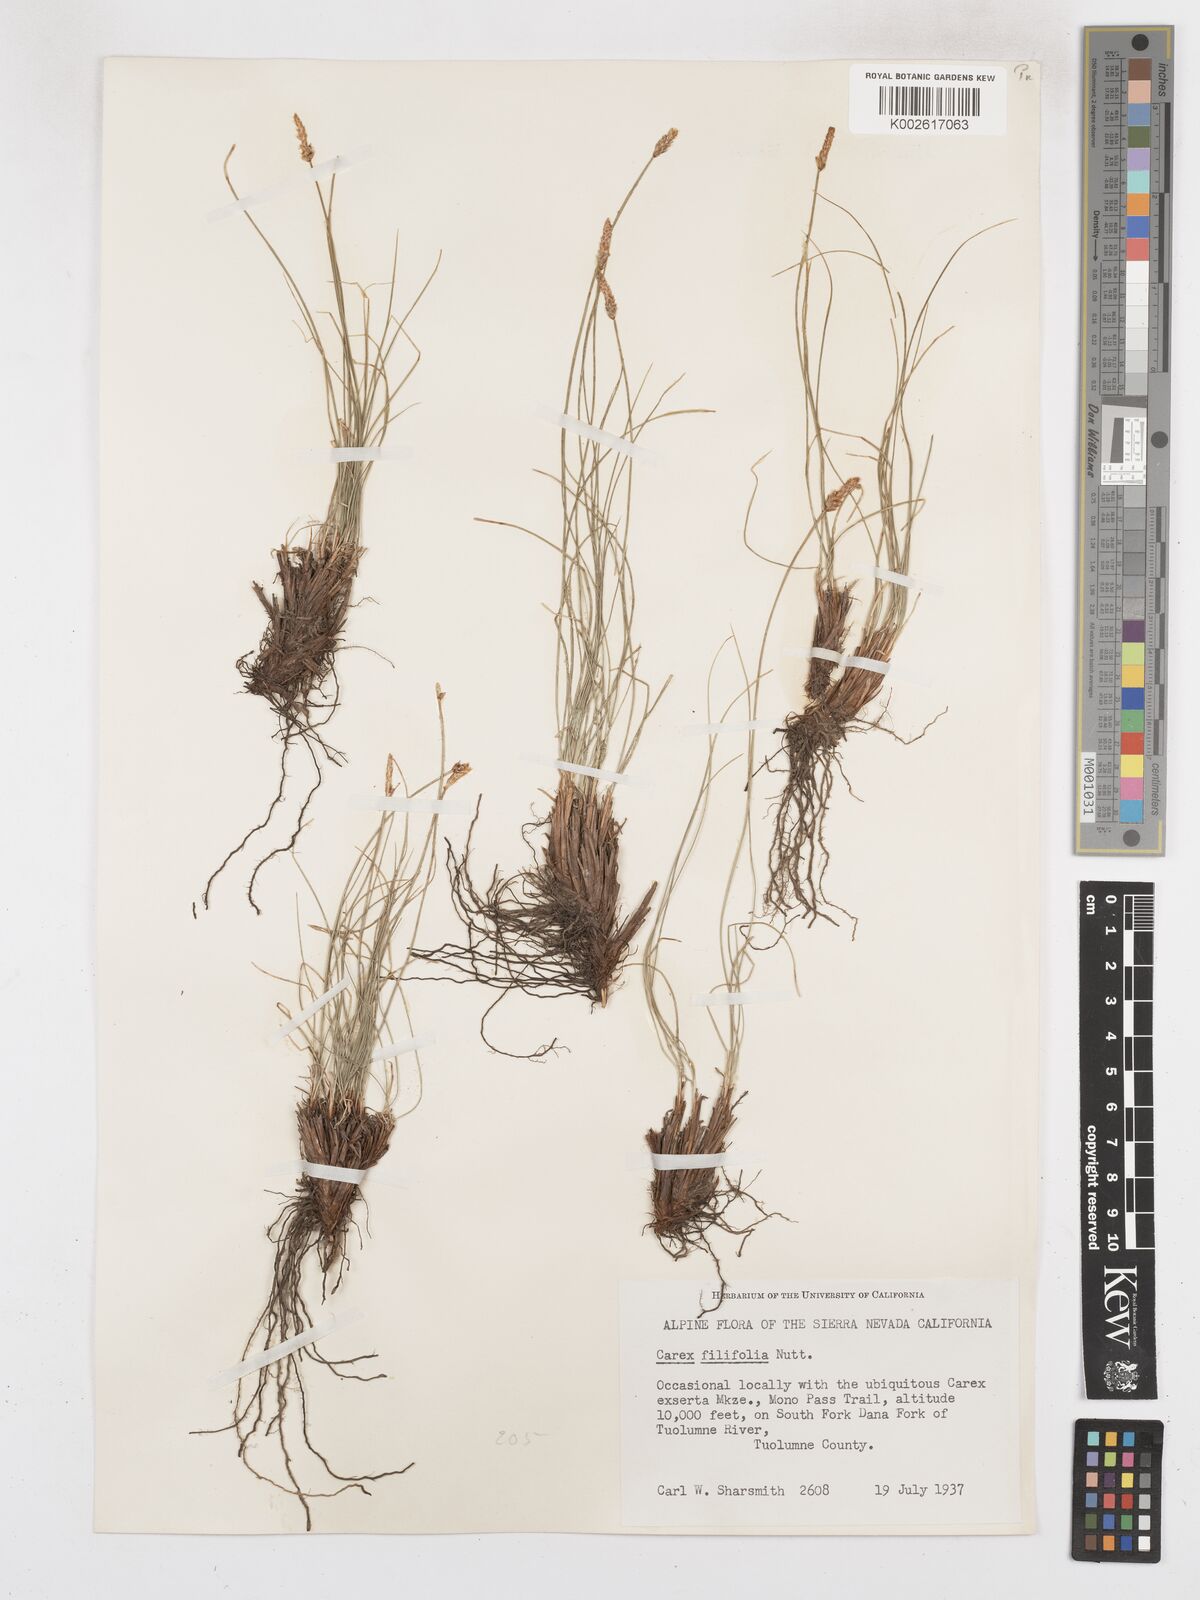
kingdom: Plantae
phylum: Tracheophyta
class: Liliopsida
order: Poales
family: Cyperaceae
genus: Carex
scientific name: Carex filifolia
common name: Threadleaf sedge
